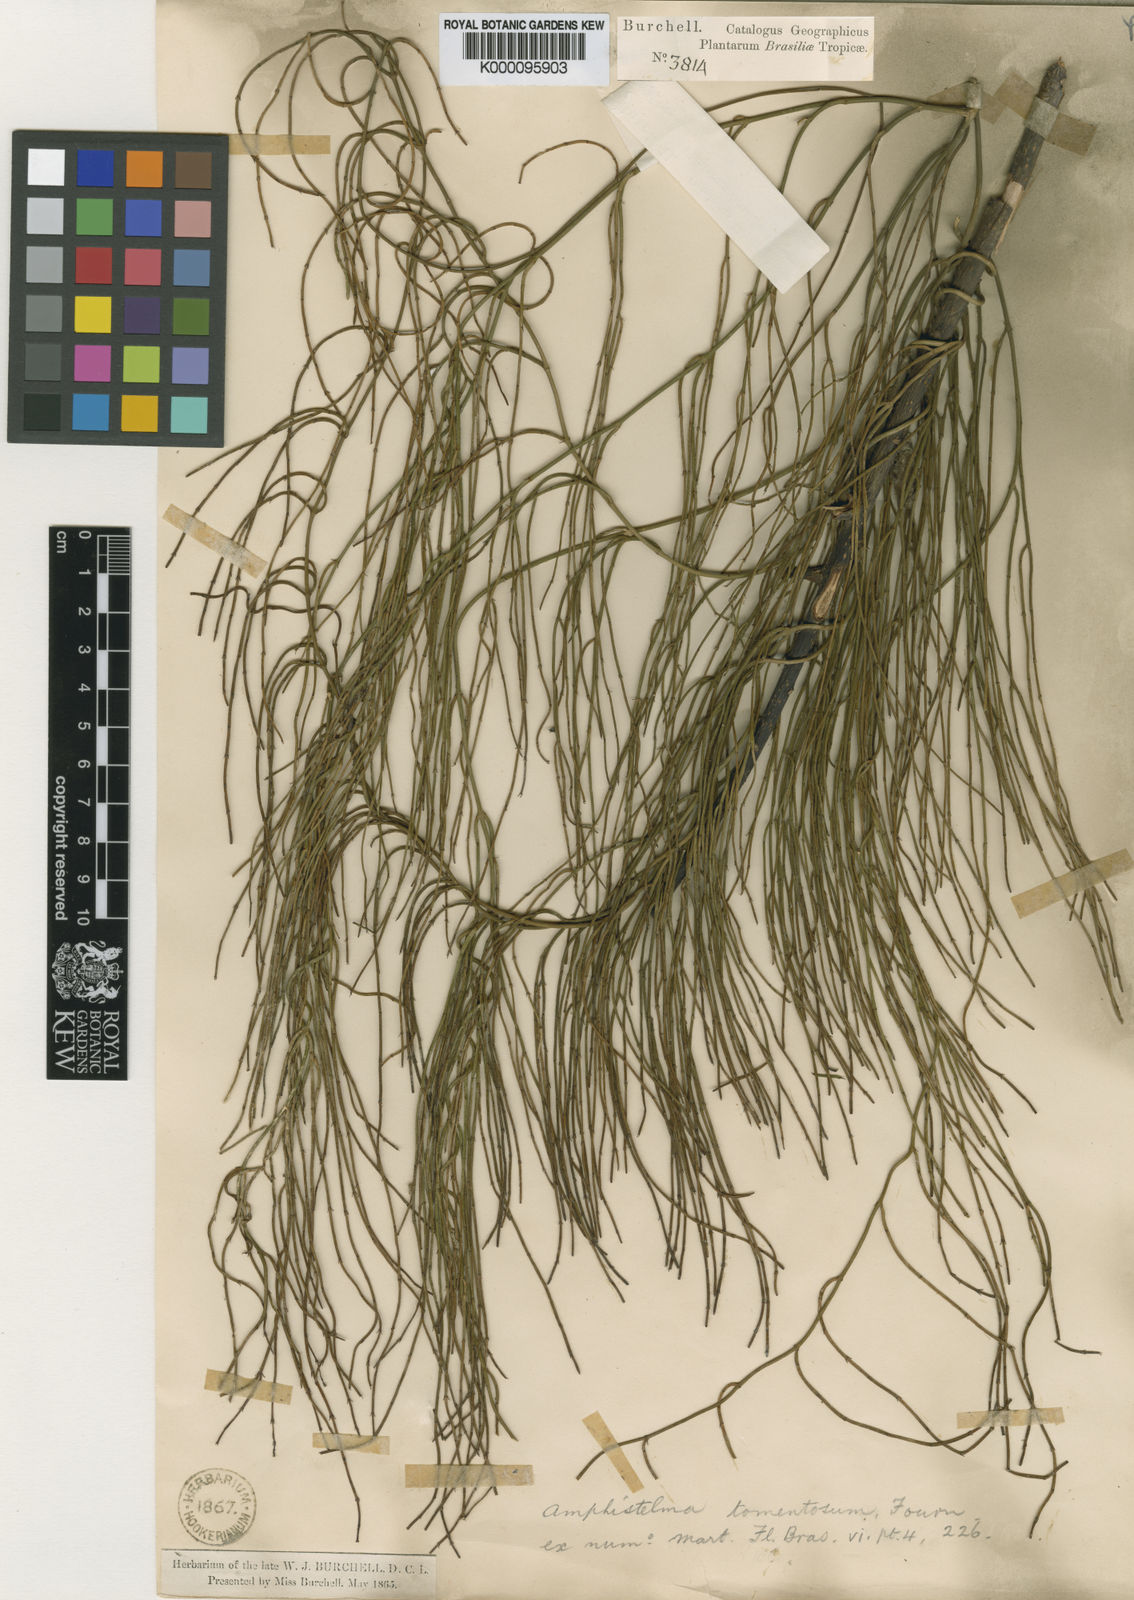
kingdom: Plantae
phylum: Tracheophyta
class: Magnoliopsida
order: Gentianales
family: Apocynaceae
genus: Orthosia
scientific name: Orthosia scoparia
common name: Leafless swallow-wort
